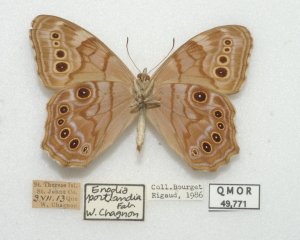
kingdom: Animalia
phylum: Arthropoda
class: Insecta
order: Lepidoptera
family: Nymphalidae
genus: Lethe
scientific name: Lethe anthedon
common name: Northern Pearly-Eye
